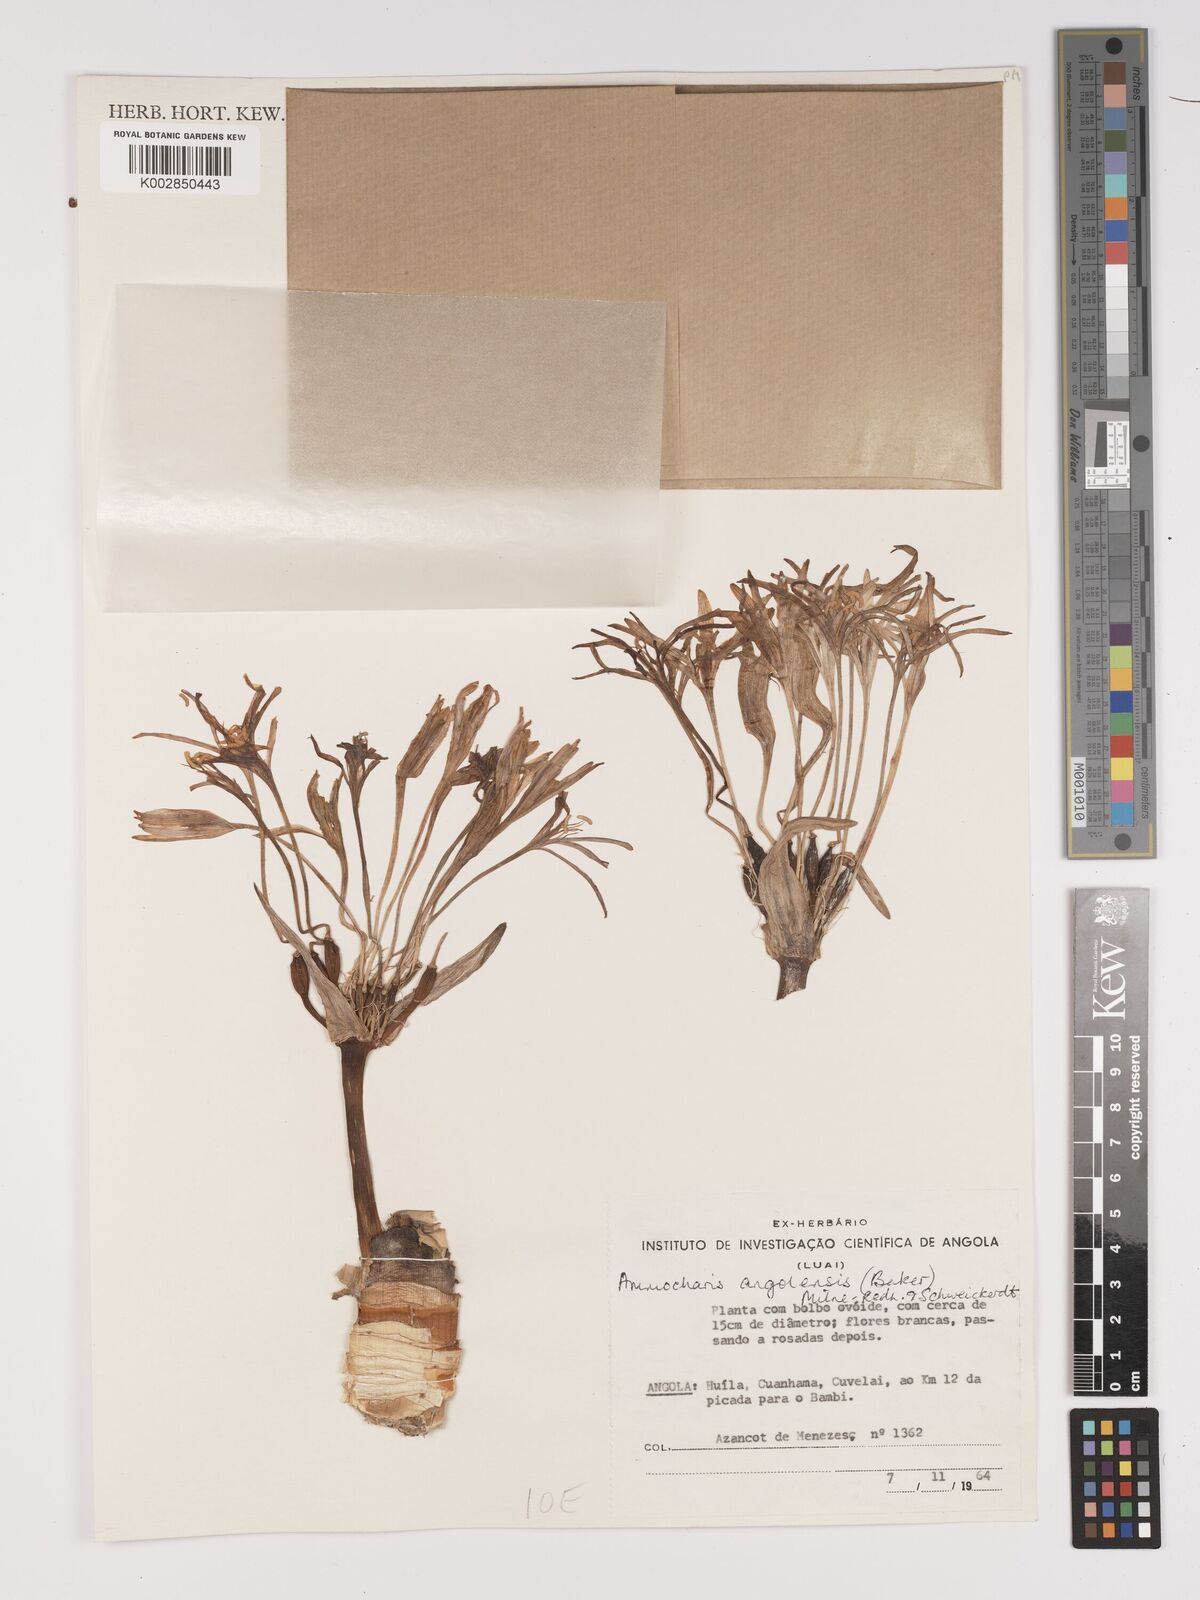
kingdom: Plantae
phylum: Tracheophyta
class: Liliopsida
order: Asparagales
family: Amaryllidaceae
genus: Ammocharis
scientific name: Ammocharis angolensis
